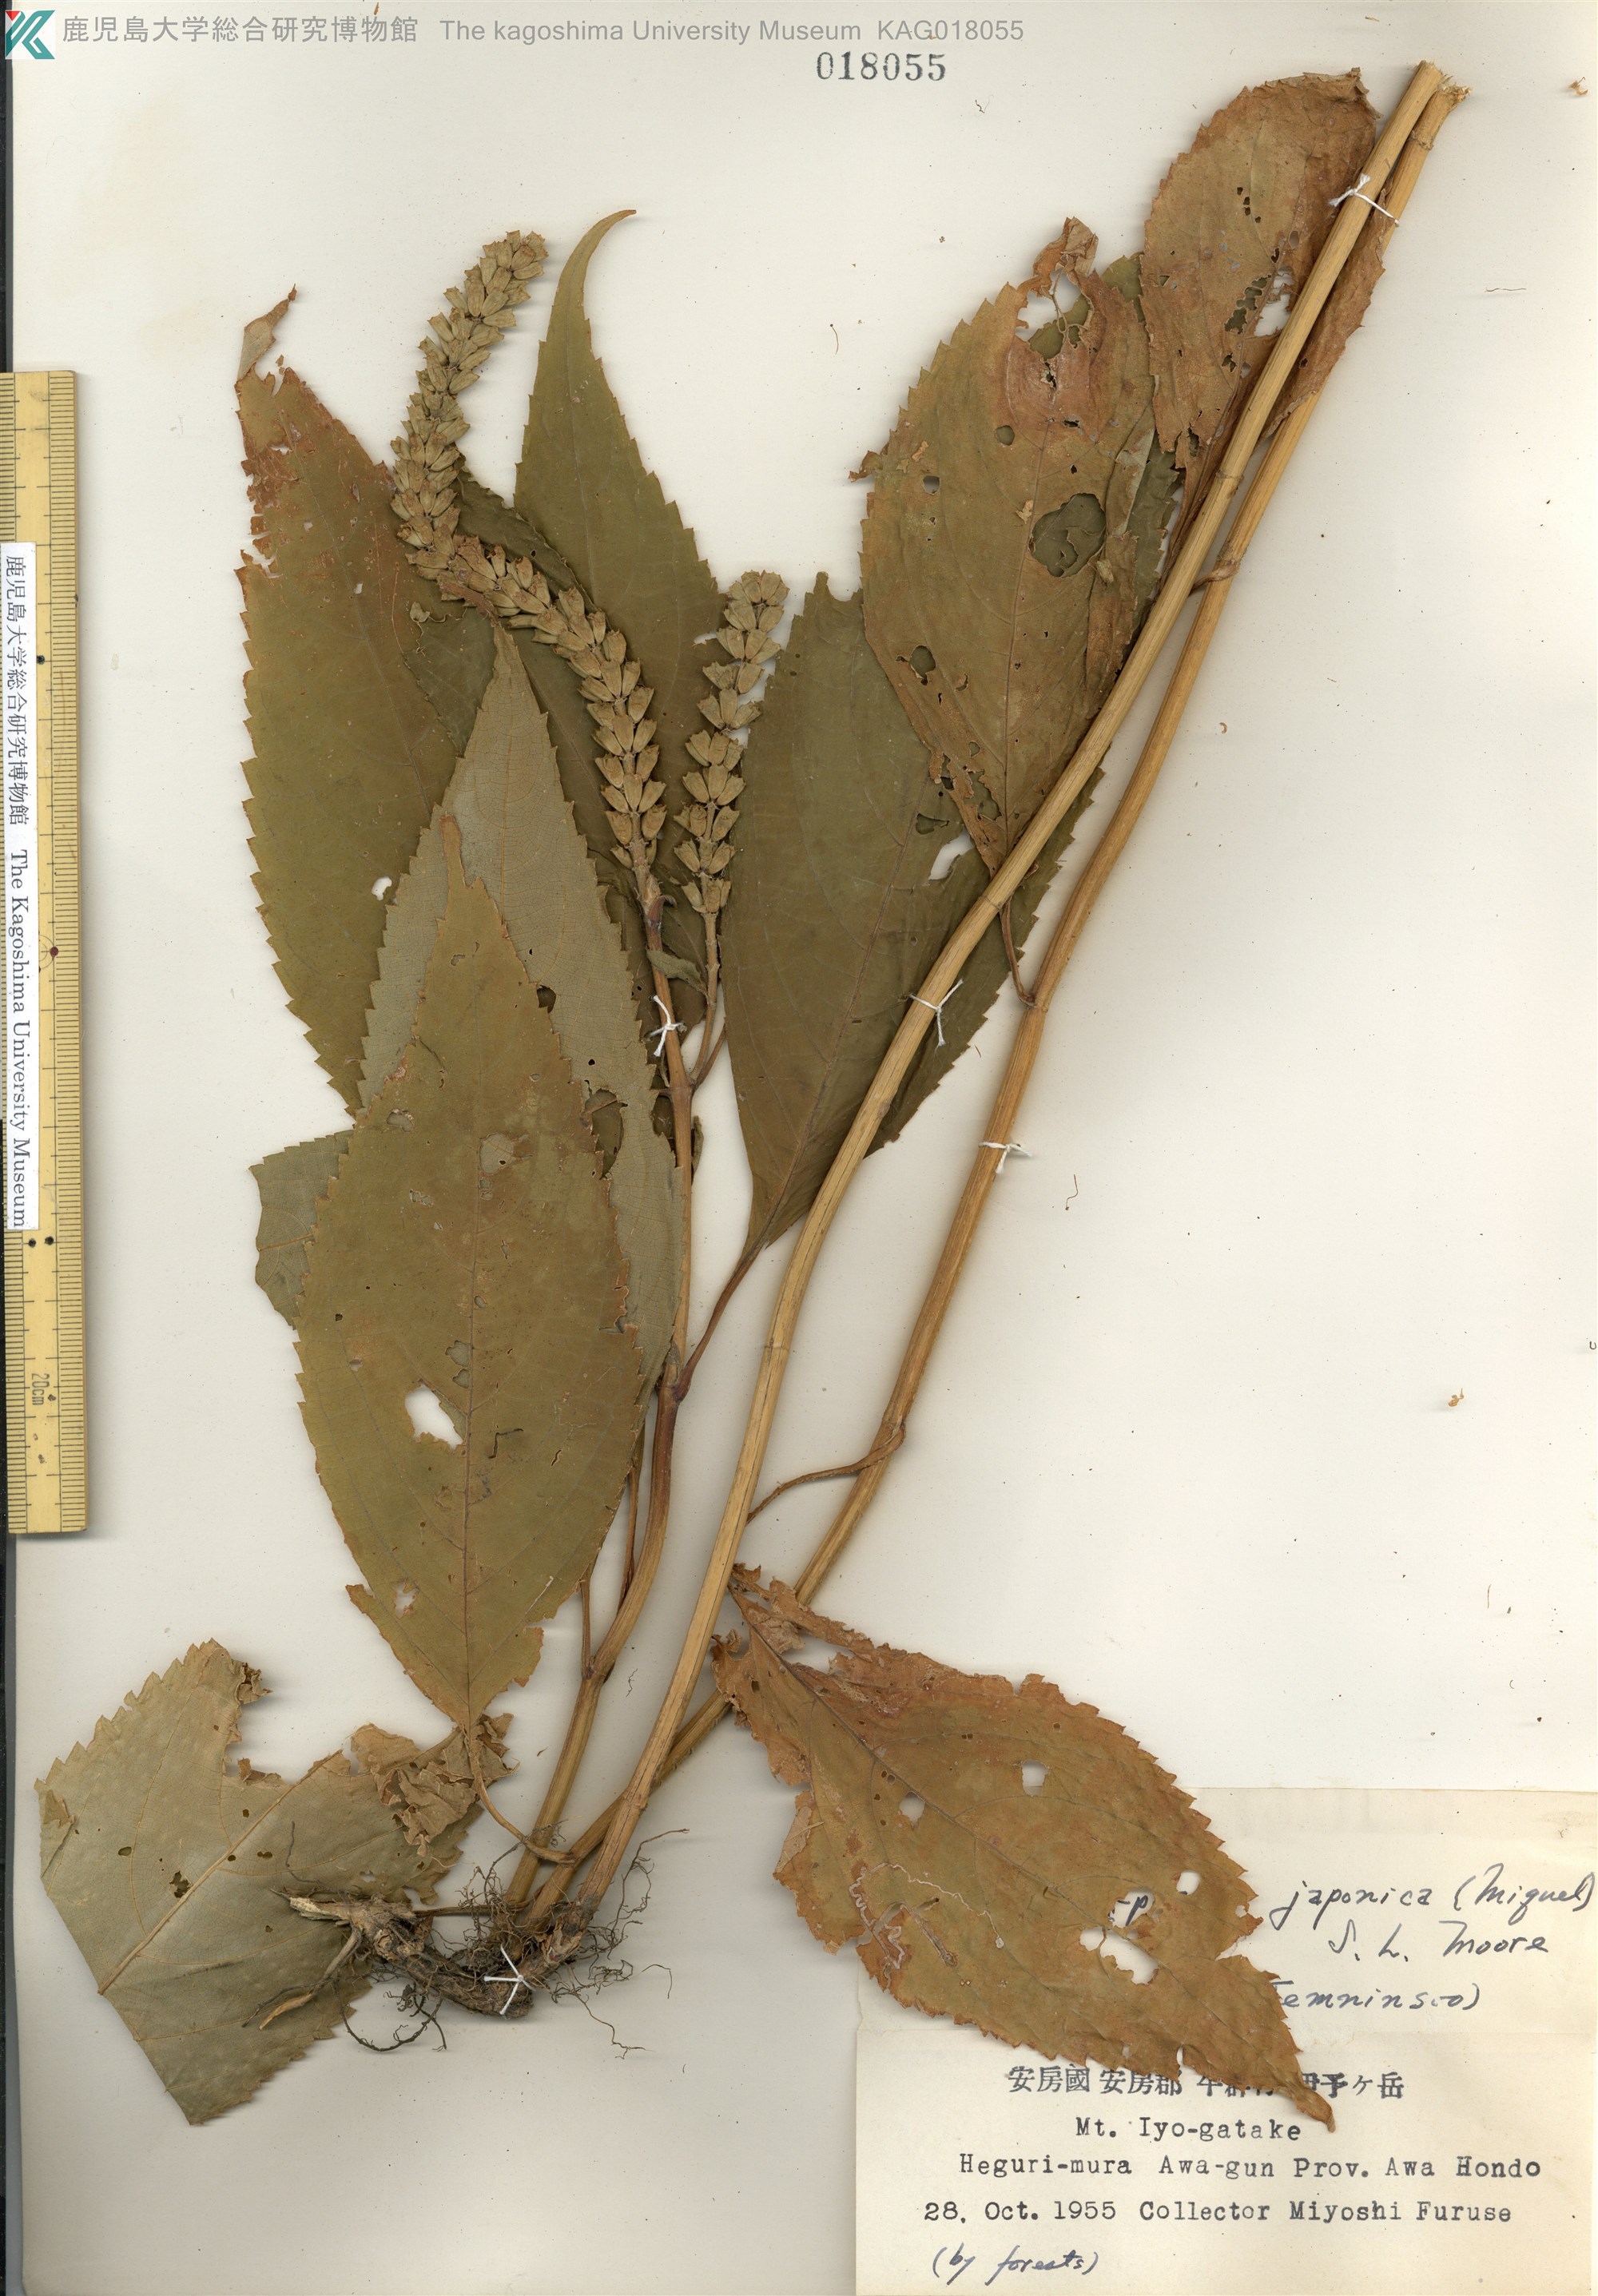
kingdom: Plantae
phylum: Tracheophyta
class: Magnoliopsida
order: Lamiales
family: Lamiaceae
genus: Comanthosphace
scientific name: Comanthosphace japonica
